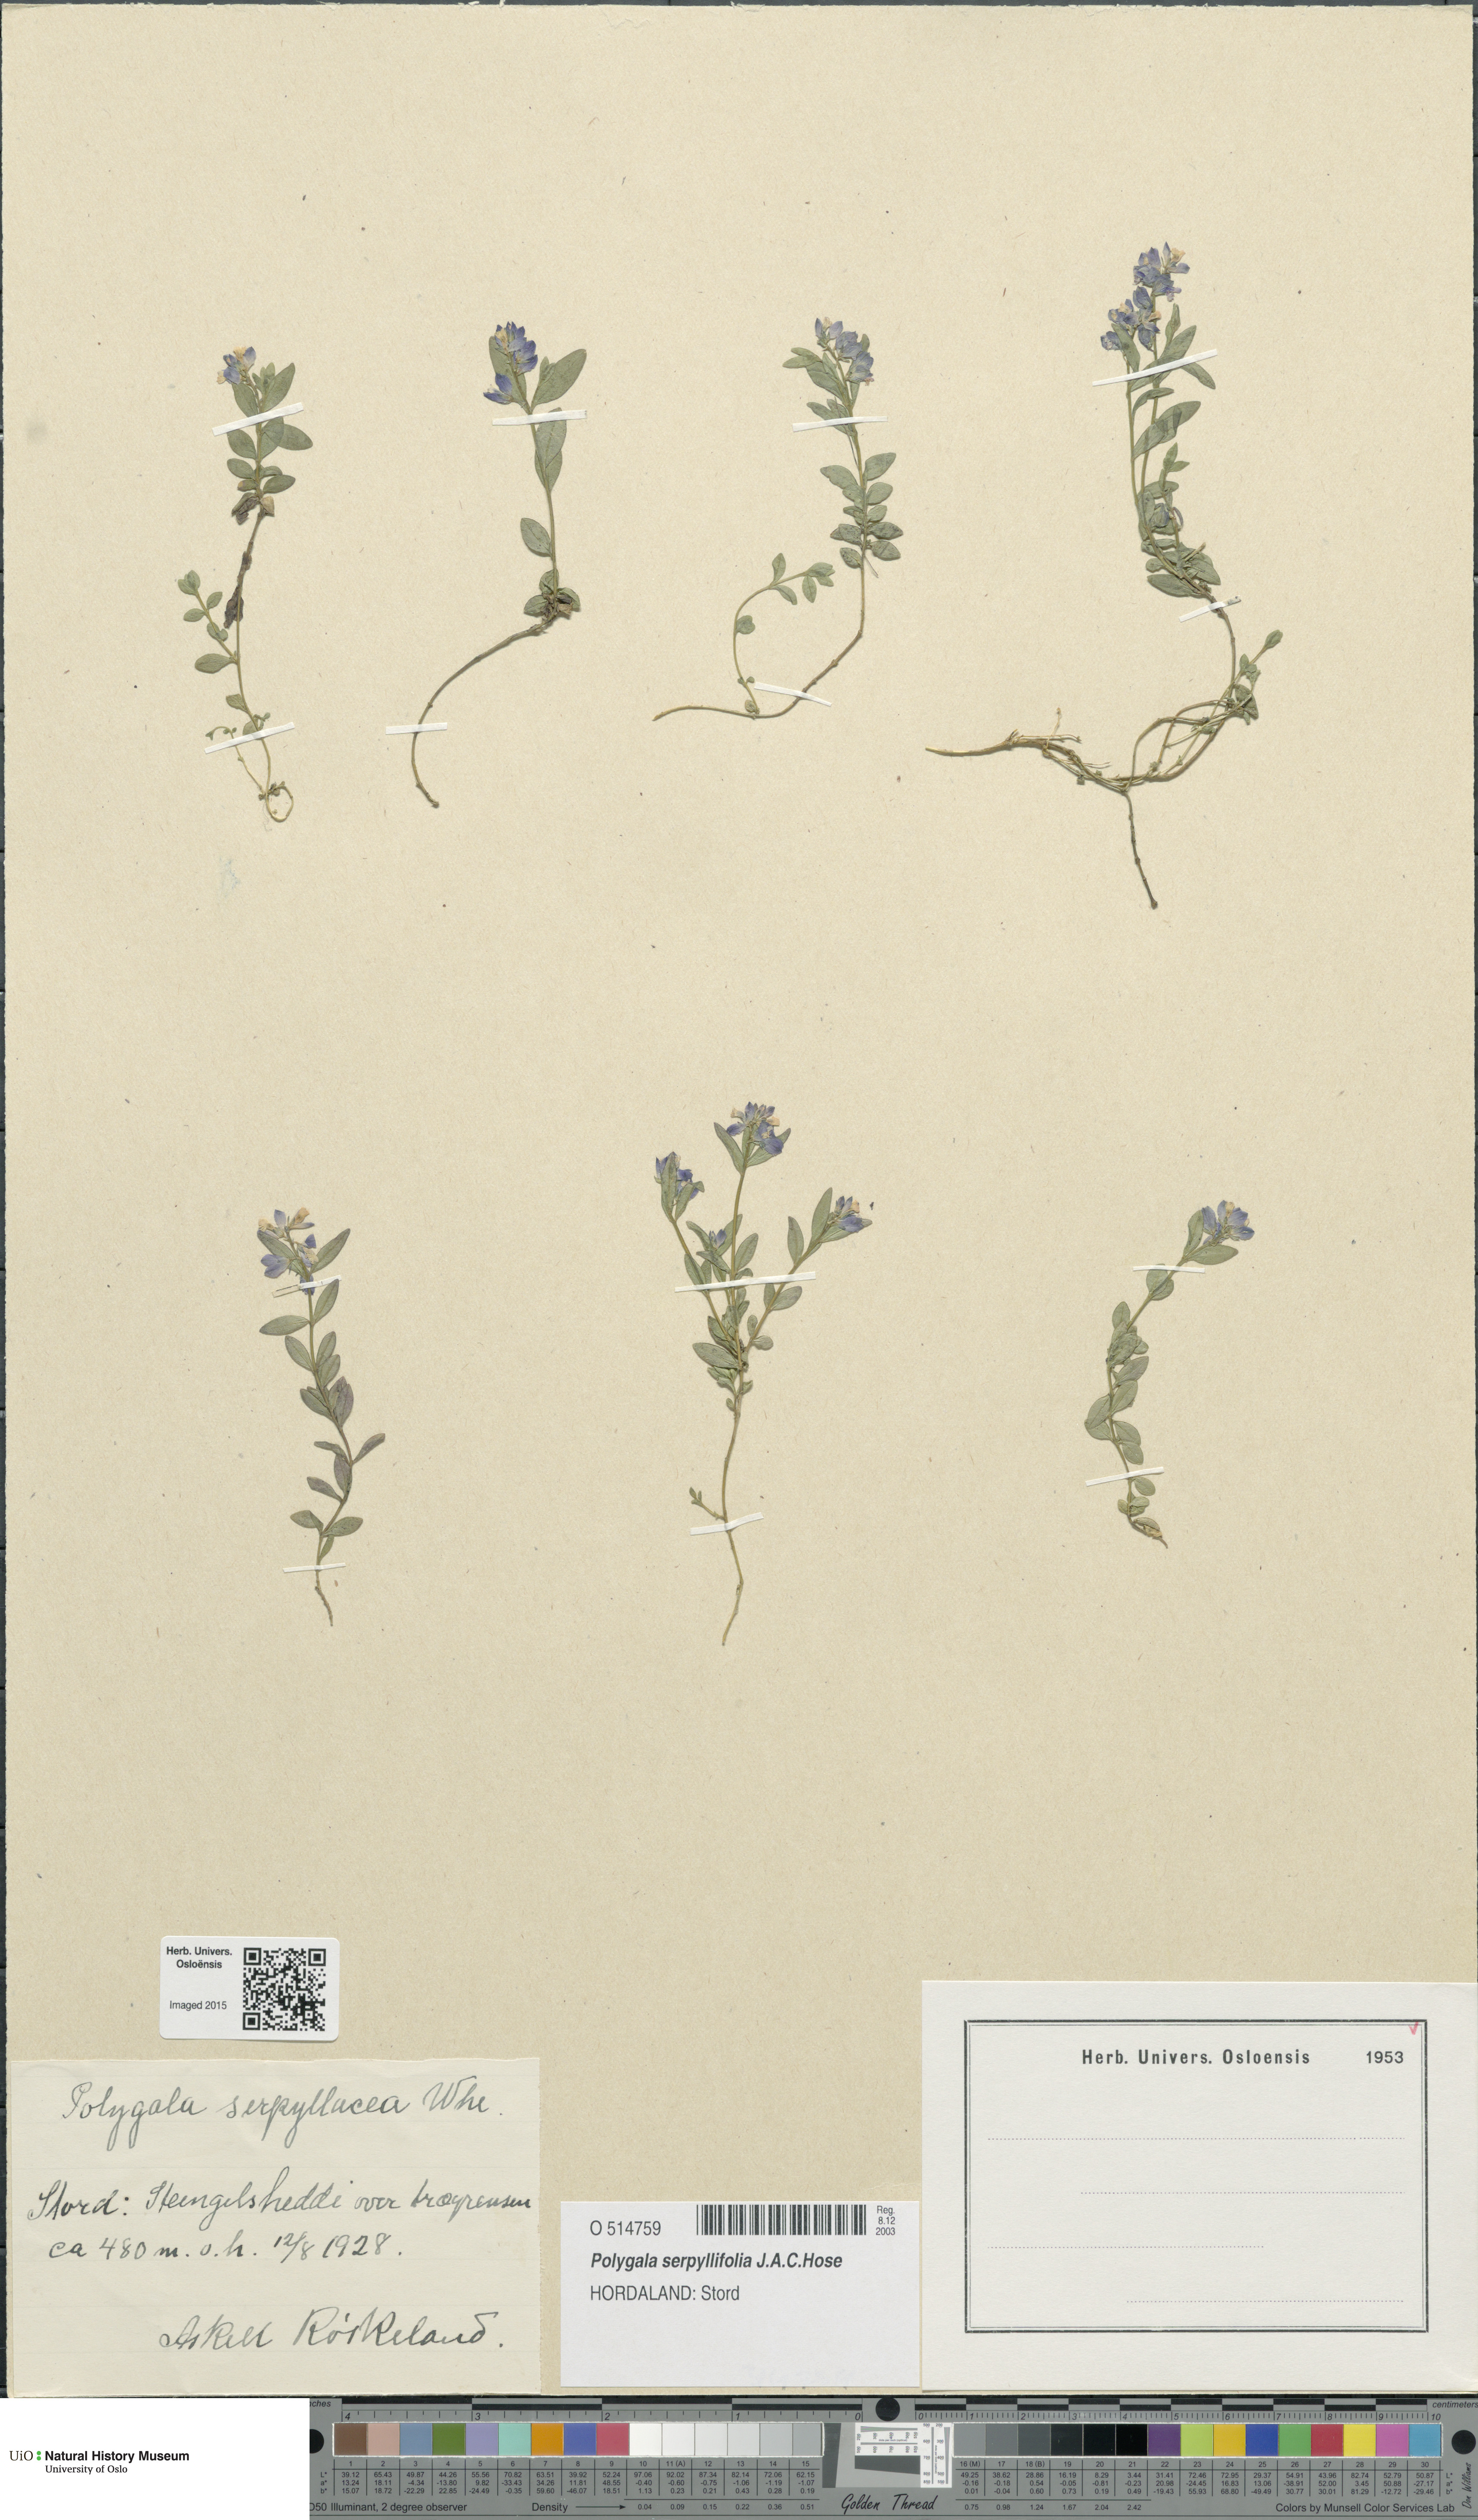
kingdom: Plantae
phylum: Tracheophyta
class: Magnoliopsida
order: Fabales
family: Polygalaceae
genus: Polygala
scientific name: Polygala serpyllifolia
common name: Heath milkwort
